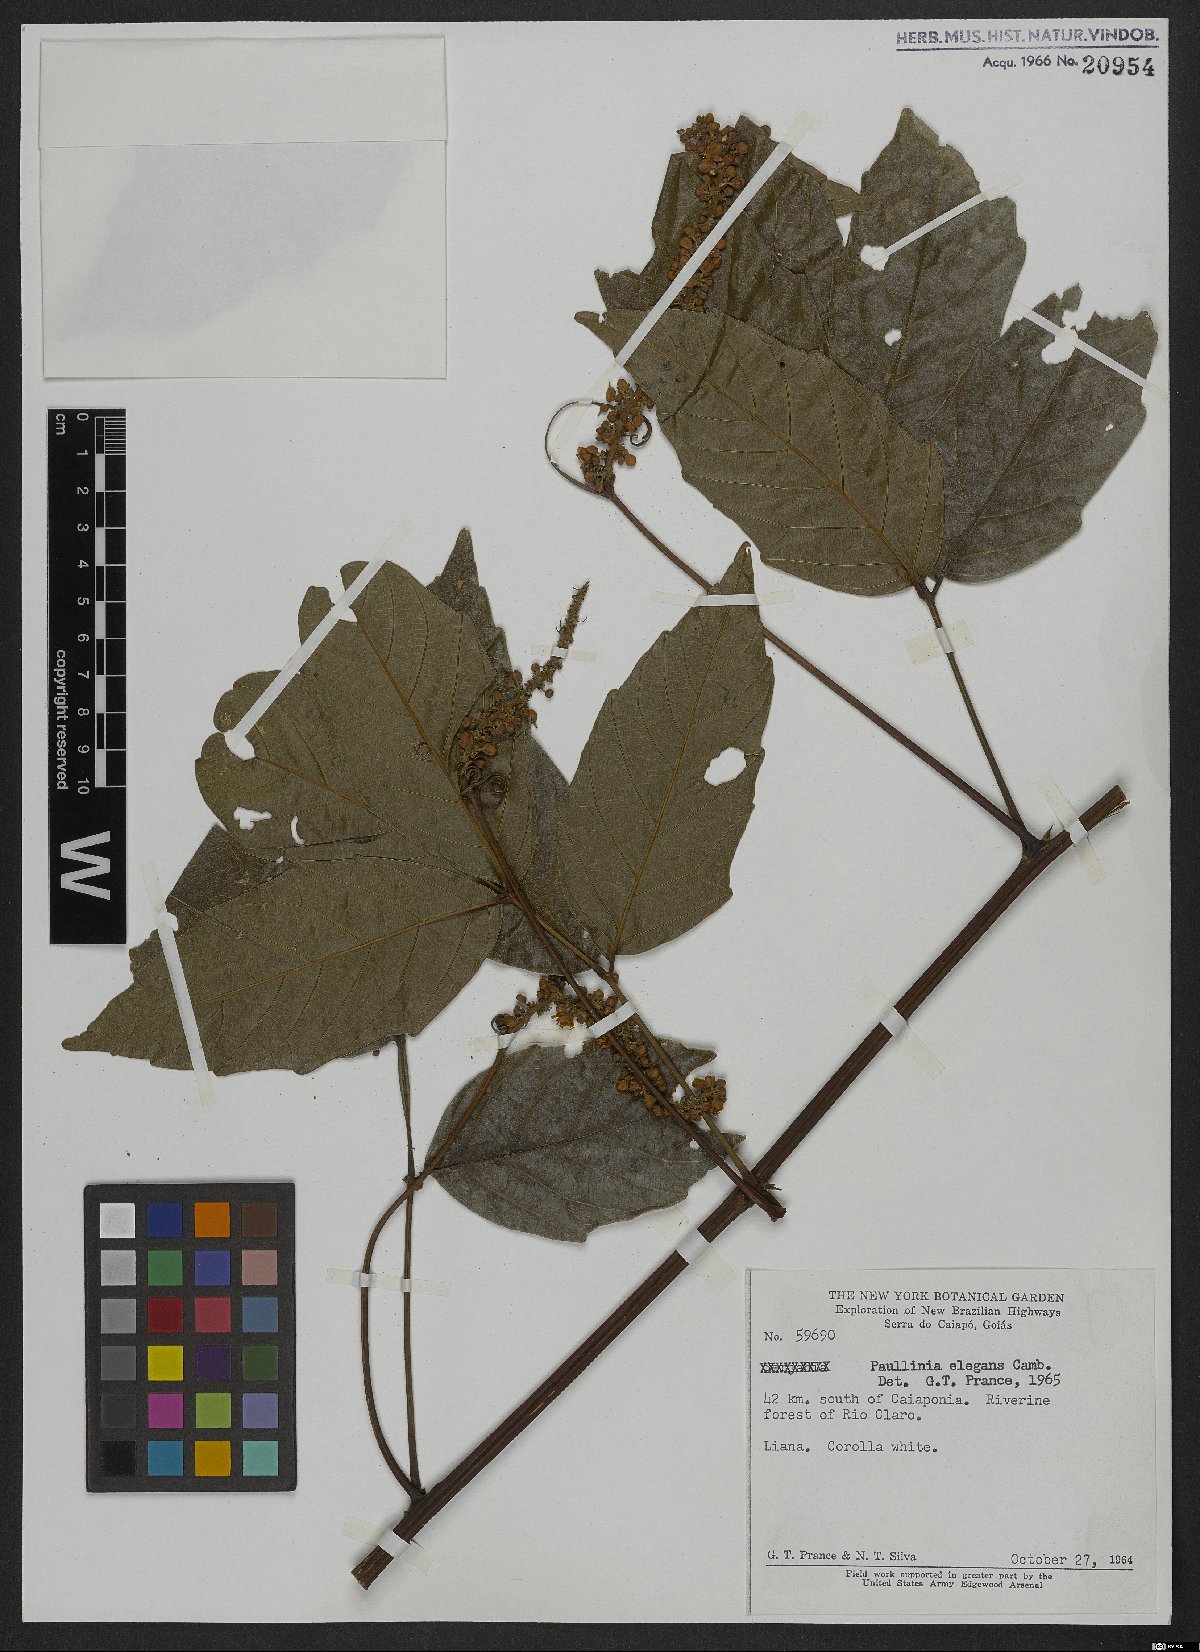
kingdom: Plantae
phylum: Tracheophyta
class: Magnoliopsida
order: Sapindales
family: Sapindaceae
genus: Paullinia
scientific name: Paullinia elegans
